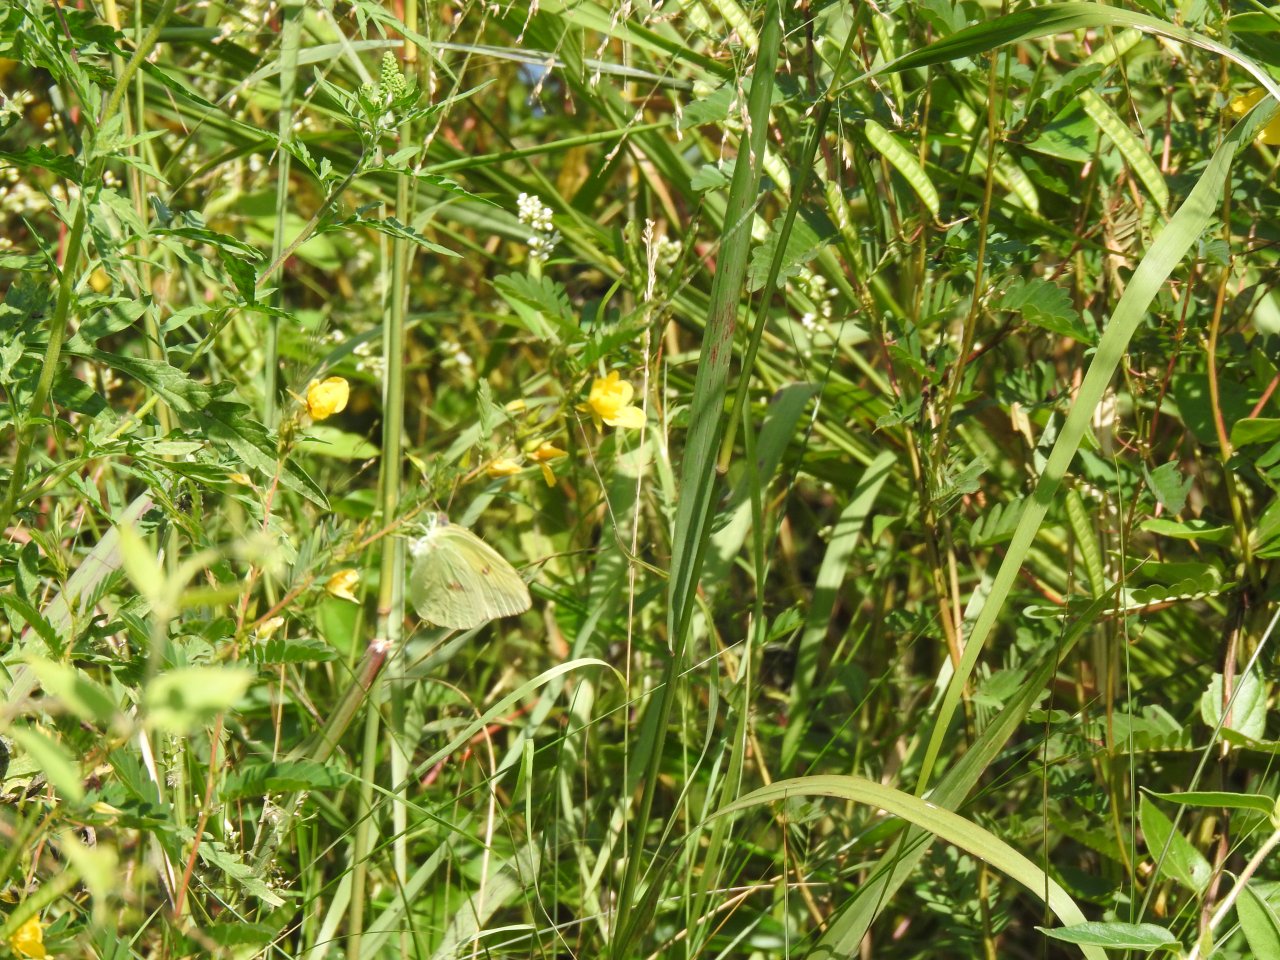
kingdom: Animalia
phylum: Arthropoda
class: Insecta
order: Lepidoptera
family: Pieridae
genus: Phoebis
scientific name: Phoebis sennae
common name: Cloudless Sulphur
